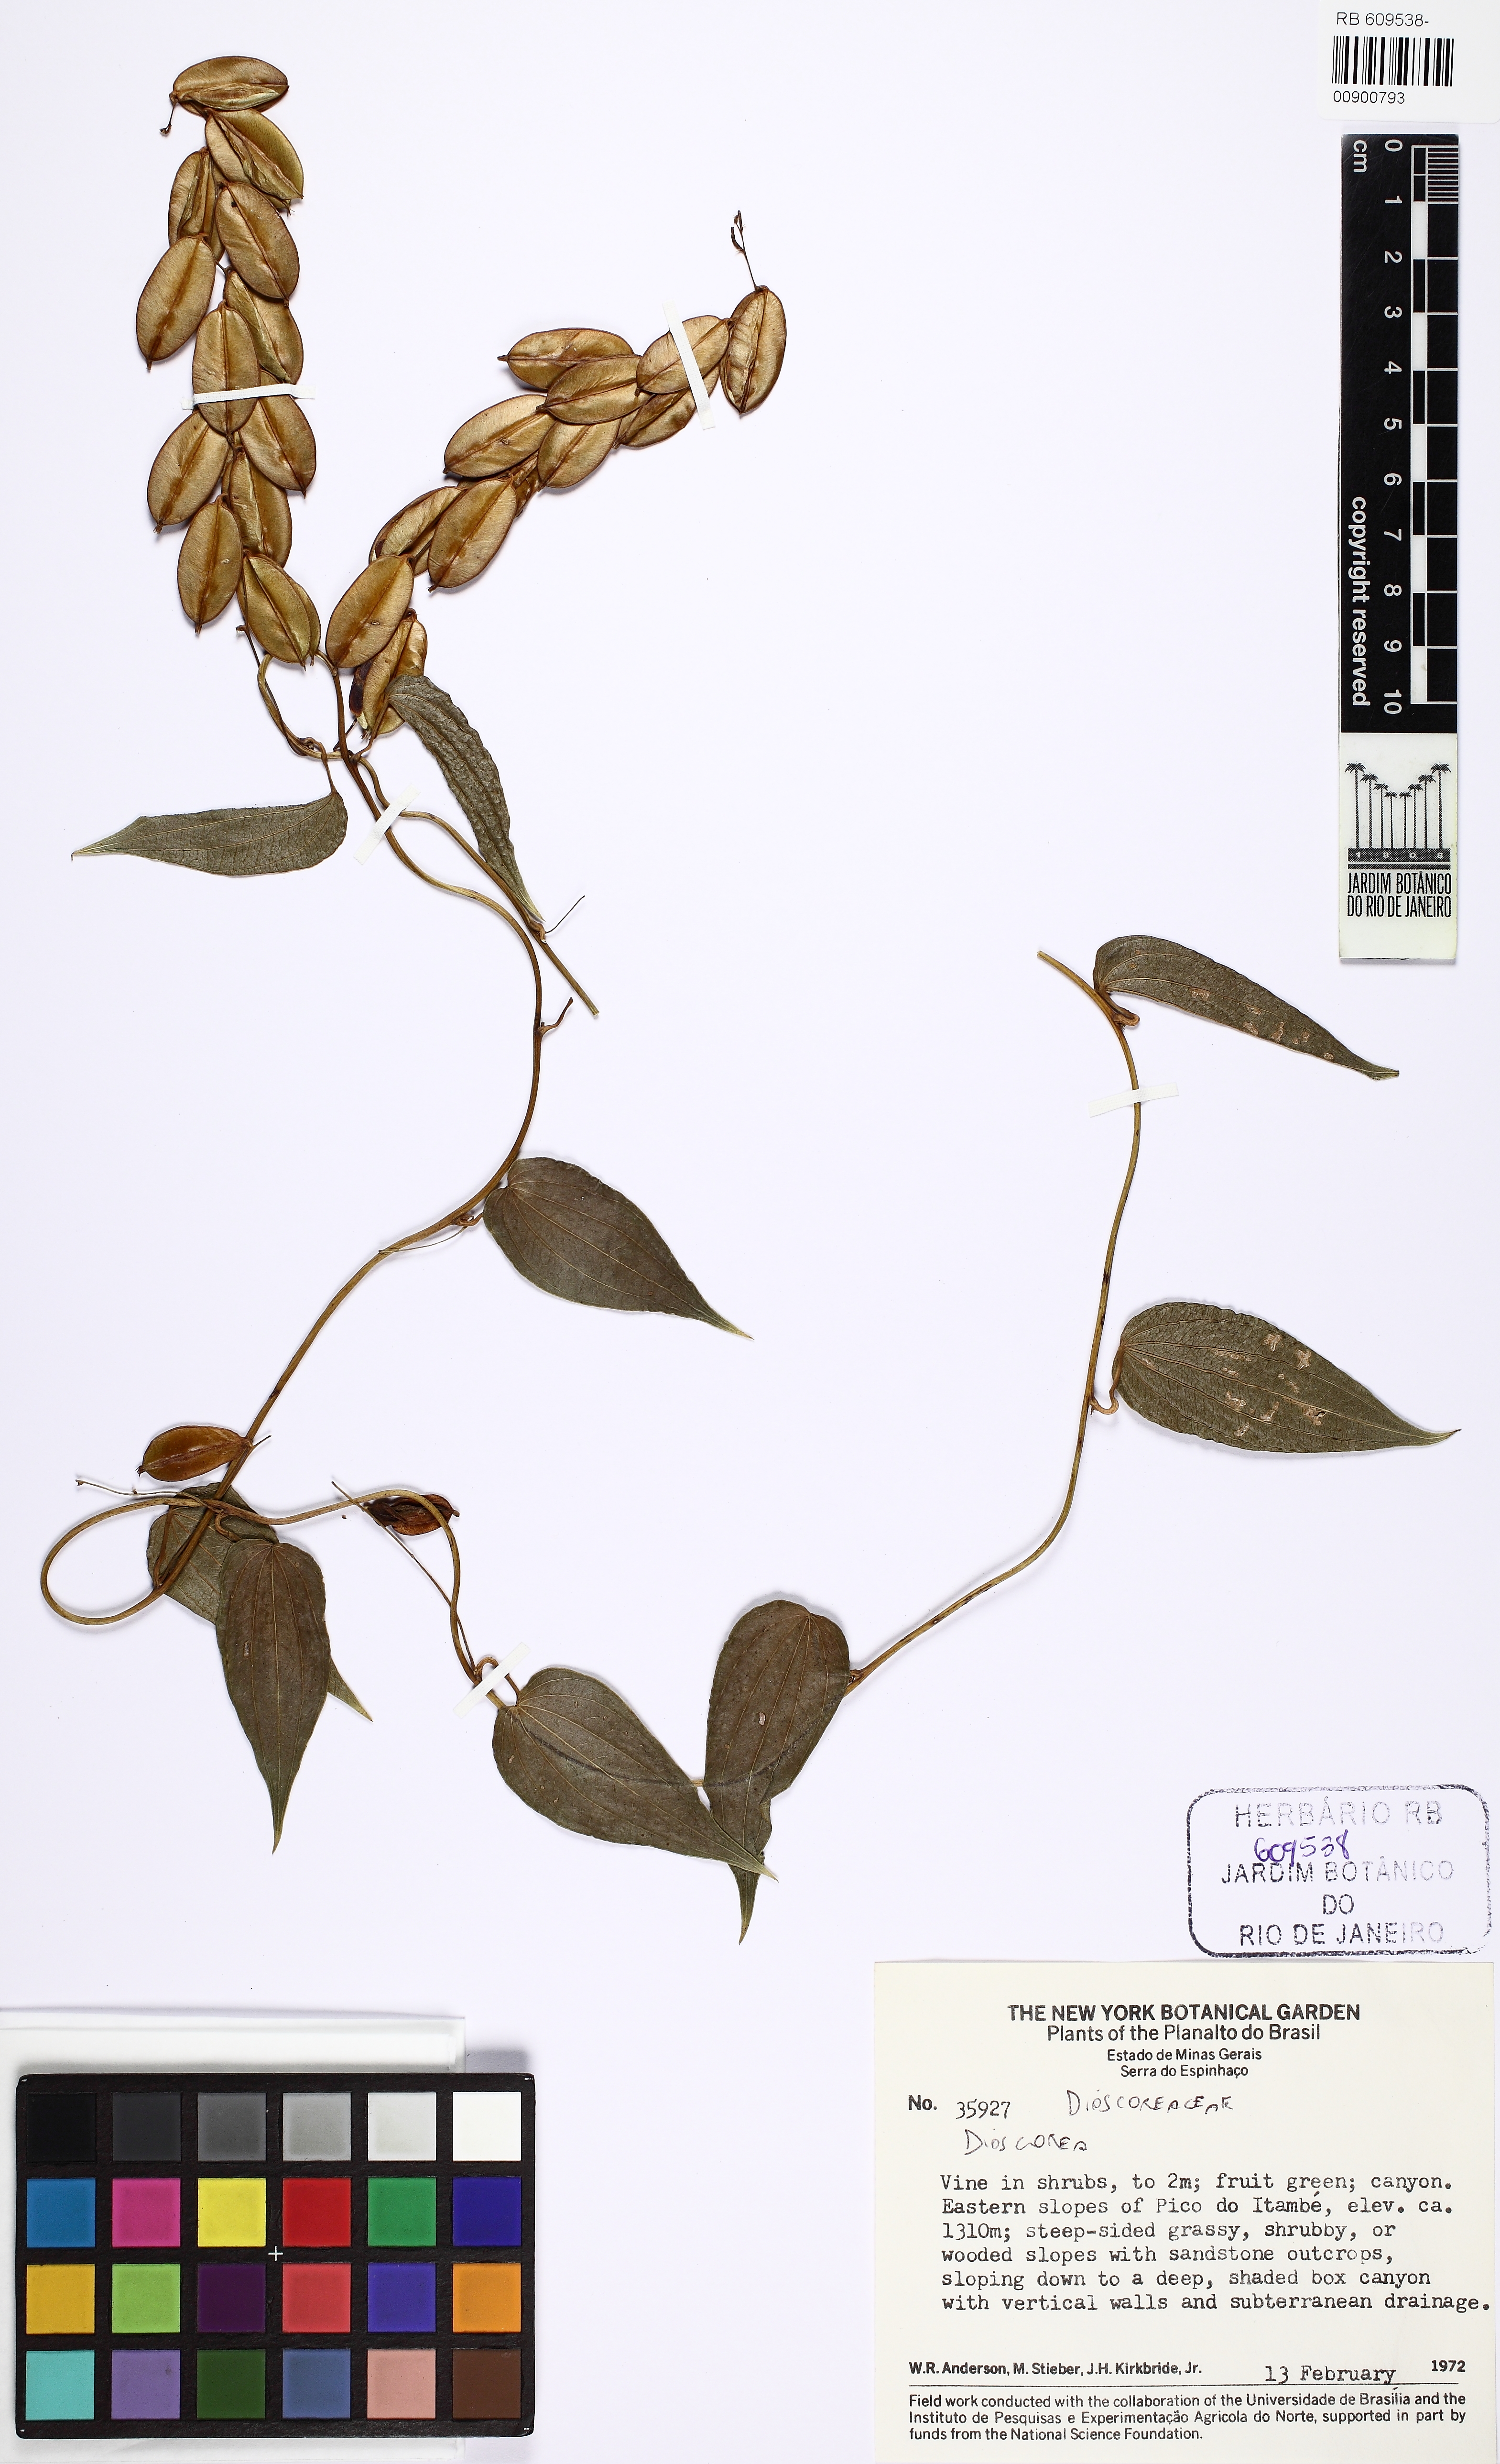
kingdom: Plantae
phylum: Tracheophyta
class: Liliopsida
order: Dioscoreales
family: Dioscoreaceae
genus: Dioscorea
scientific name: Dioscorea campestris
